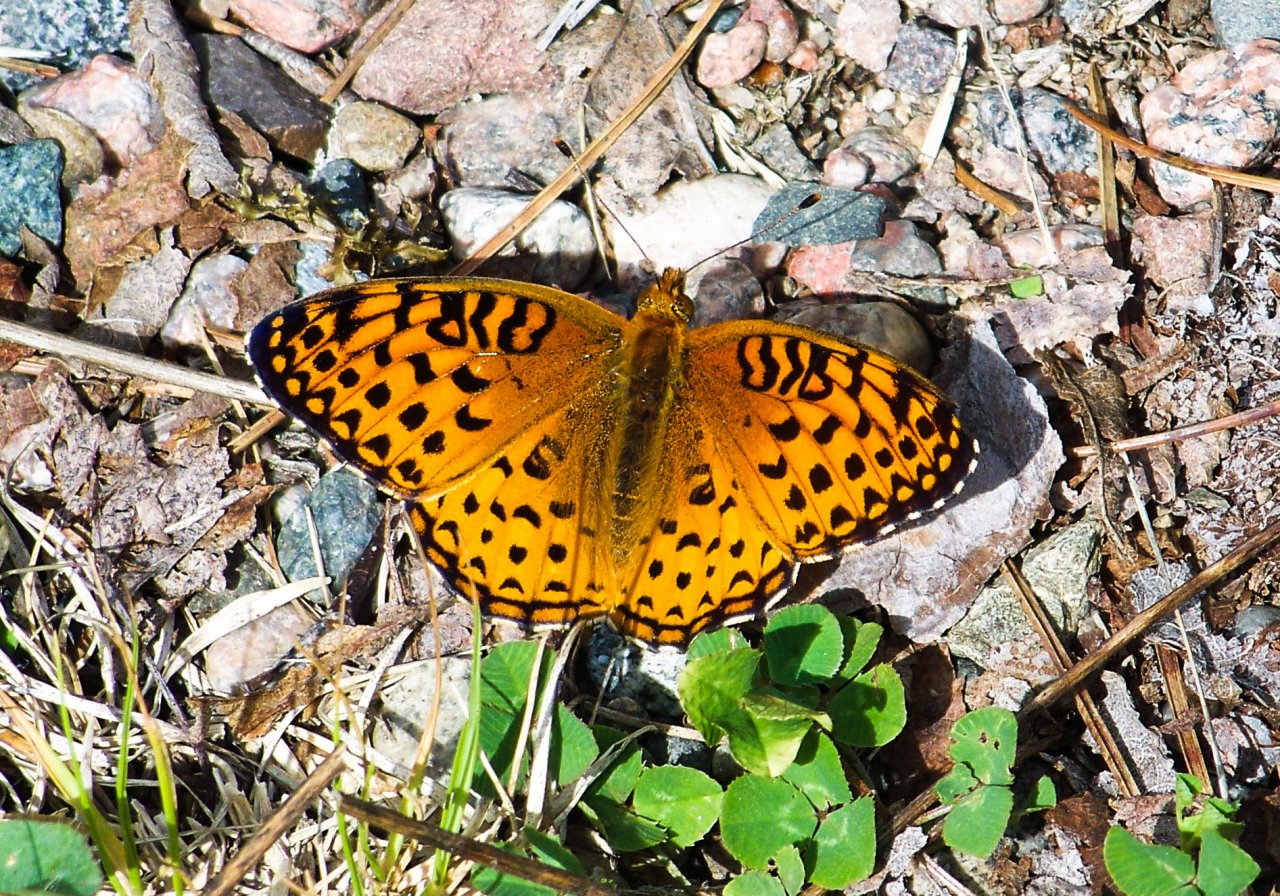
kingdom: Animalia
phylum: Arthropoda
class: Insecta
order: Lepidoptera
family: Nymphalidae
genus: Speyeria
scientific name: Speyeria aphrodite
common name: Aphrodite Fritillary
